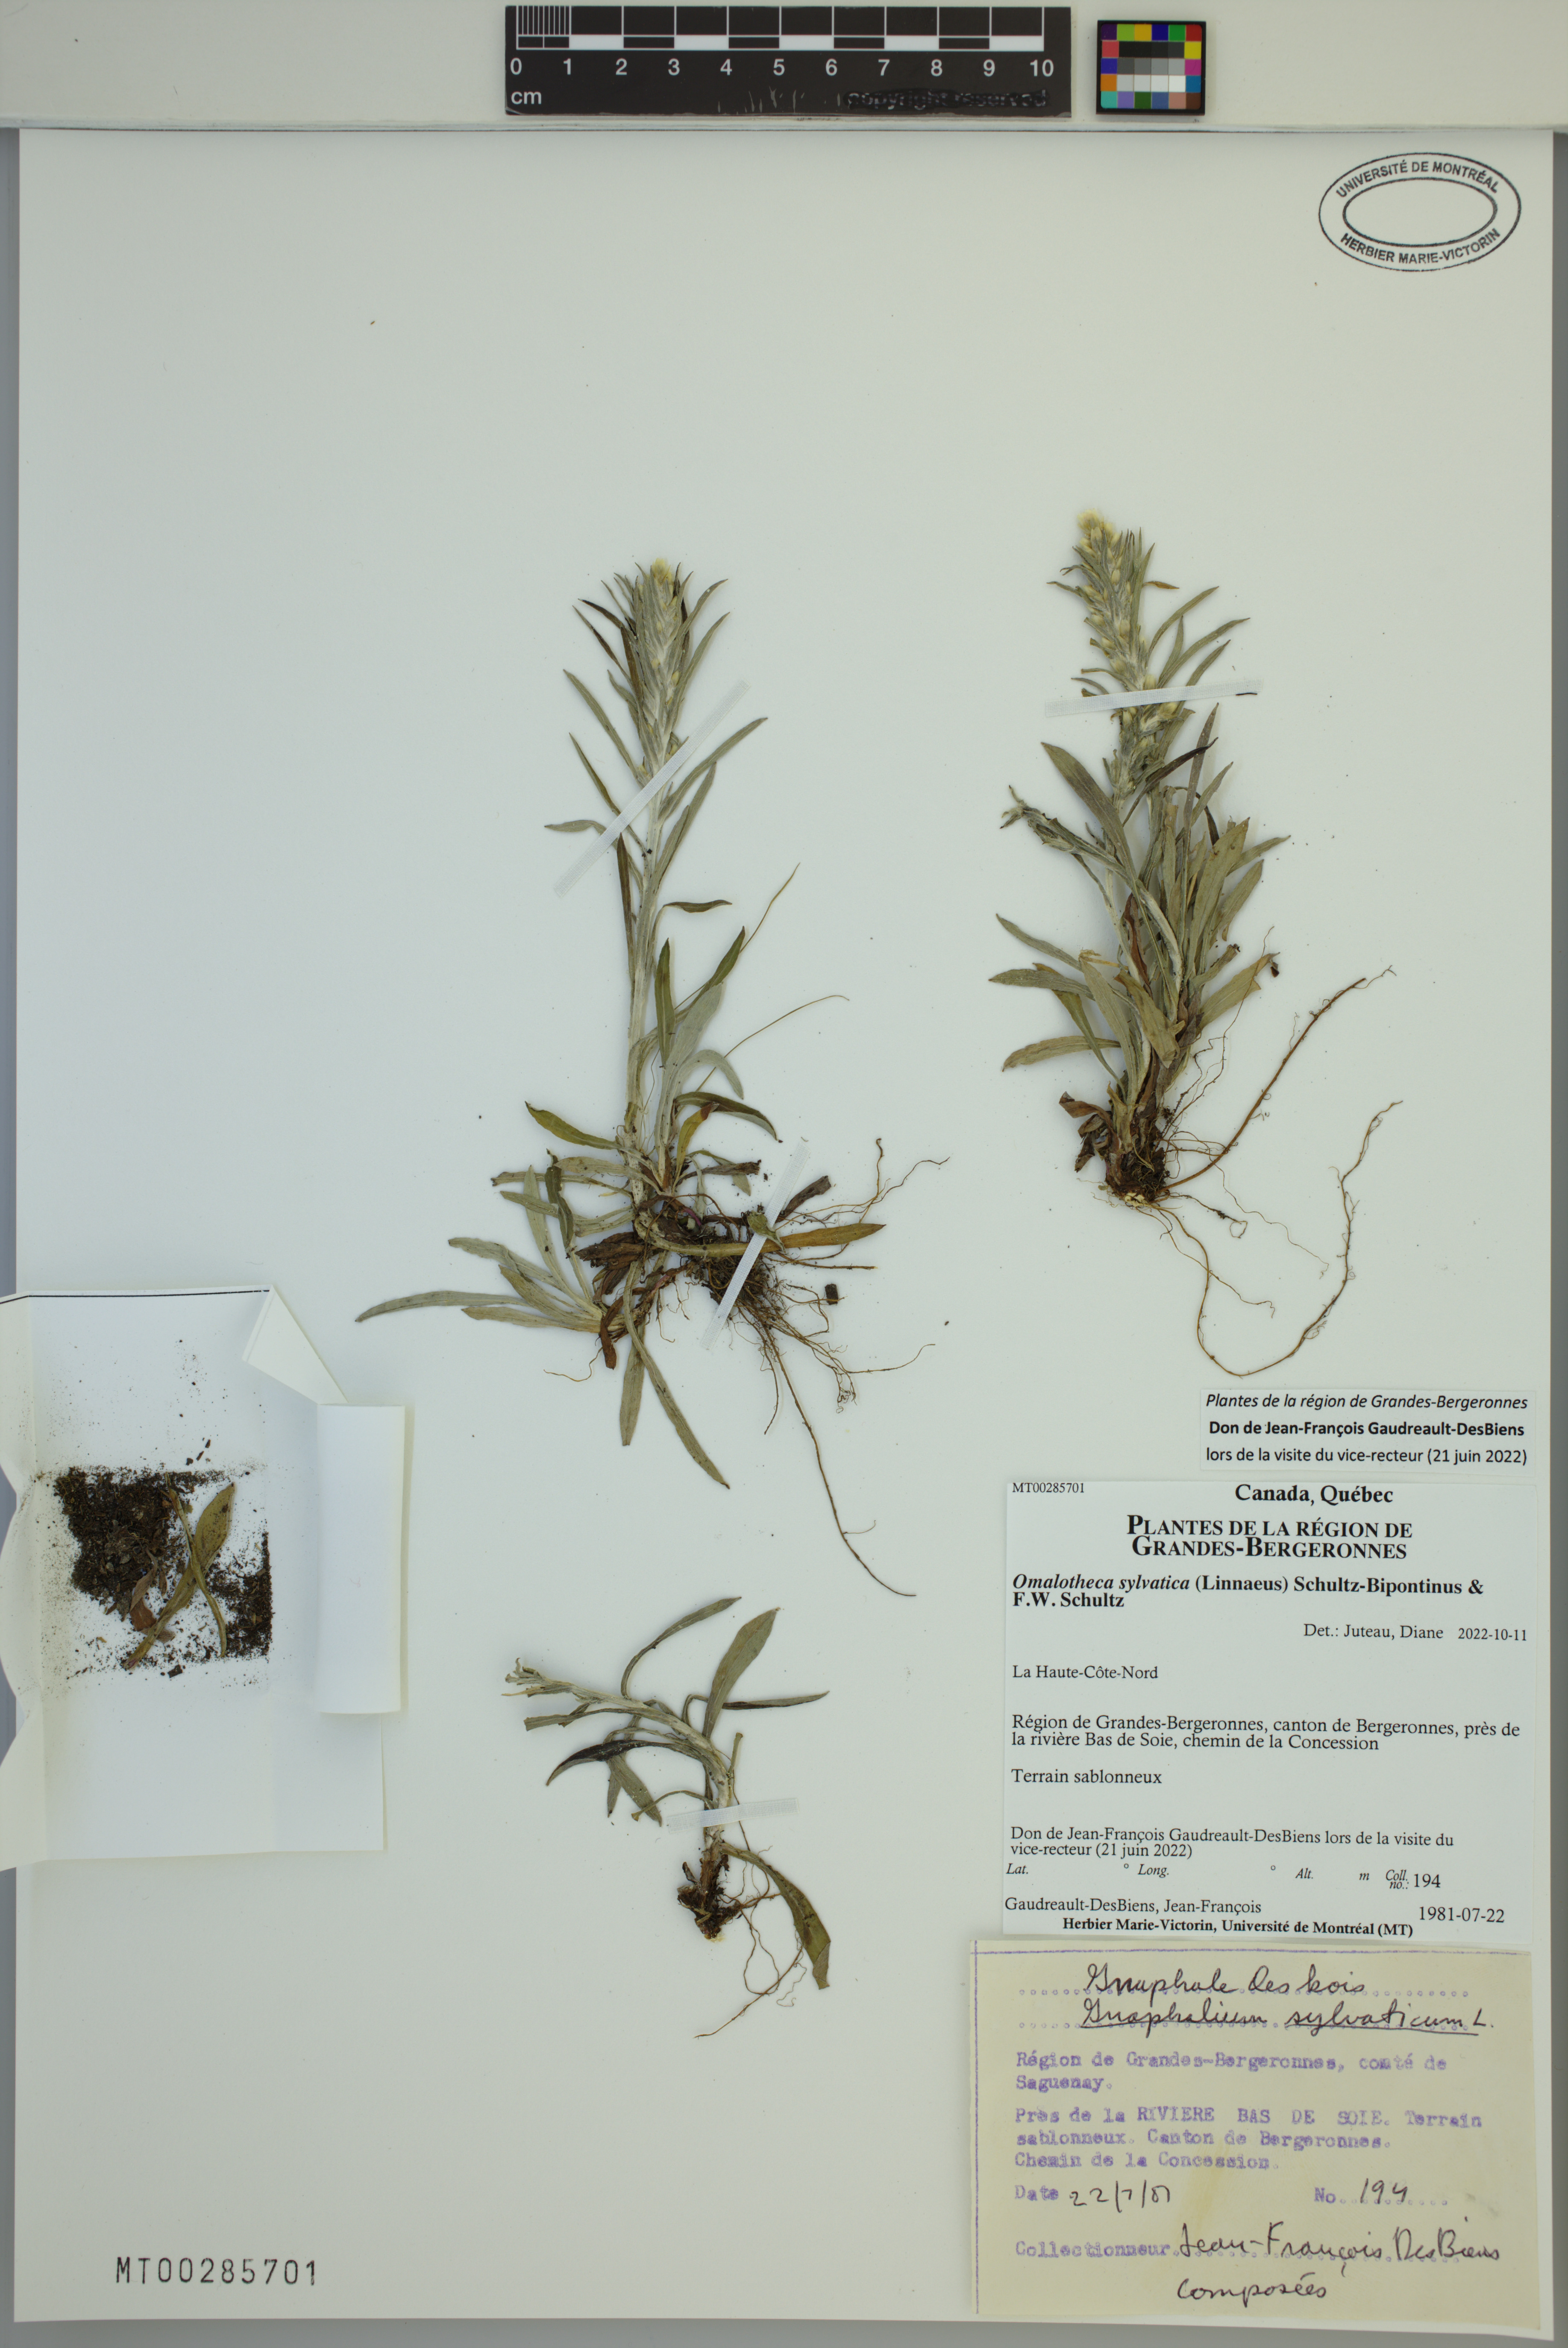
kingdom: Plantae
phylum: Tracheophyta
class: Magnoliopsida
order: Asterales
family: Asteraceae
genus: Omalotheca
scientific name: Omalotheca sylvatica
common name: Heath cudweed
